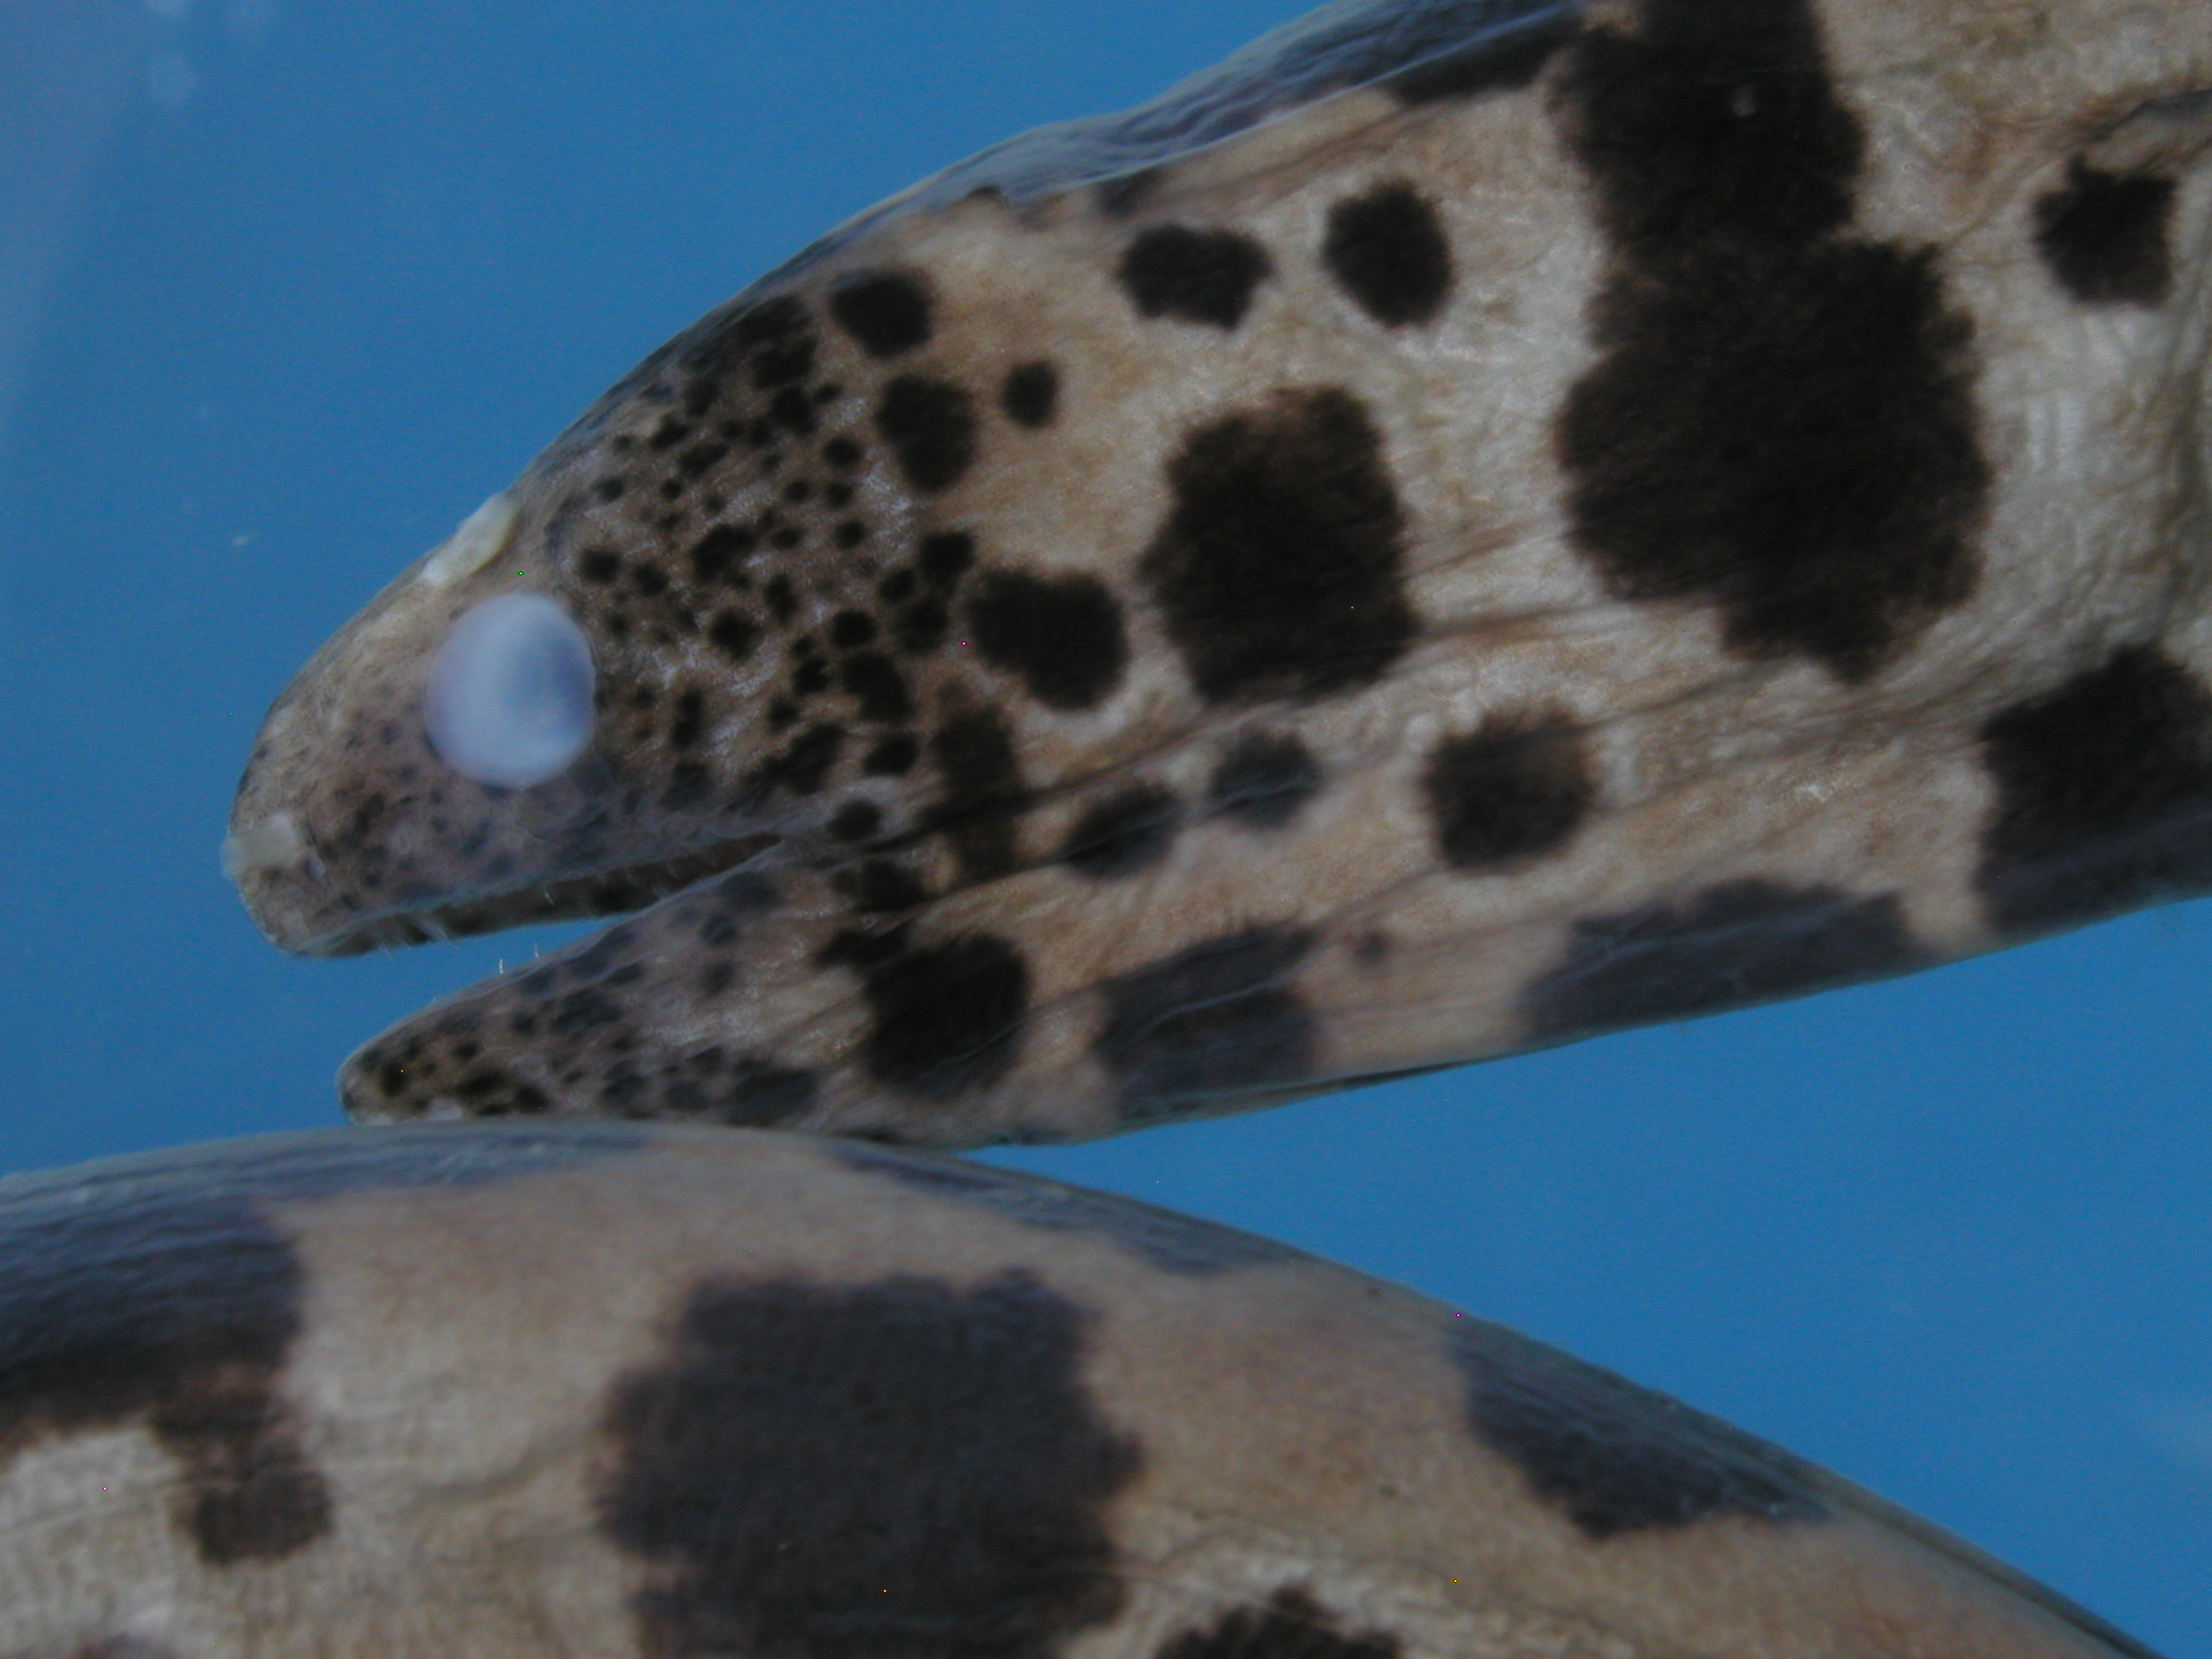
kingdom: Animalia
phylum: Chordata
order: Anguilliformes
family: Muraenidae
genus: Scuticaria
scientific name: Scuticaria tigrina
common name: Tiger moray
